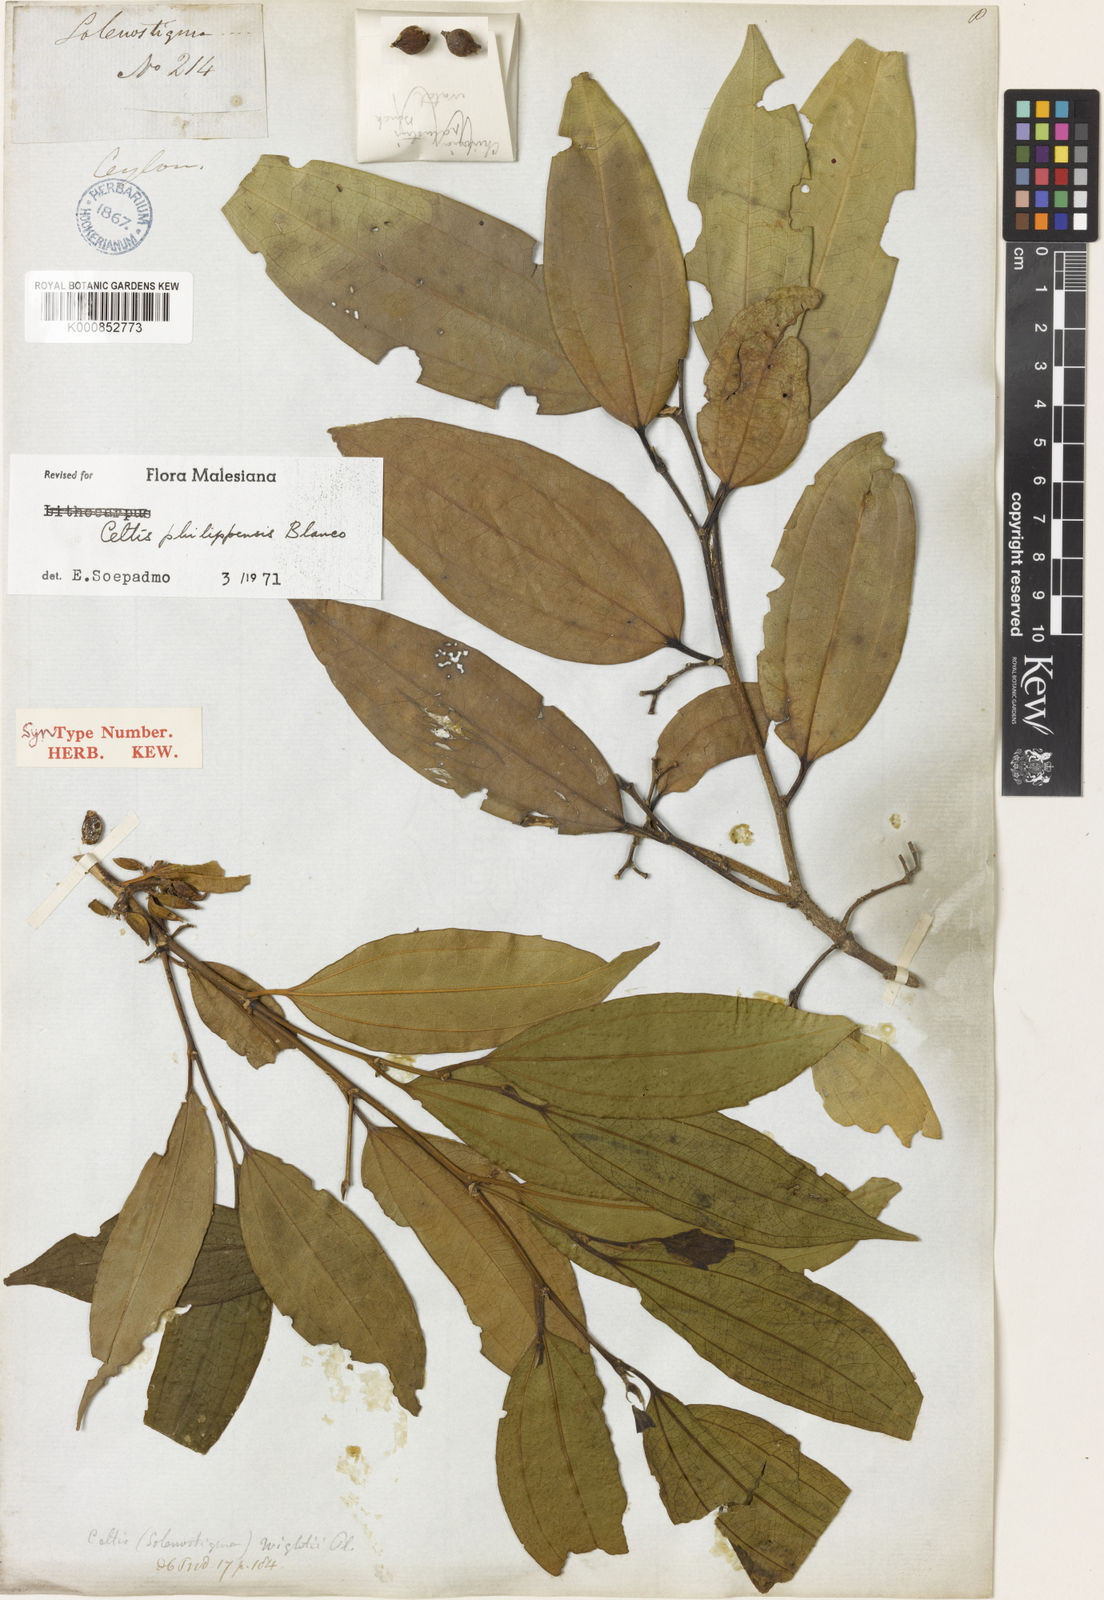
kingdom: Plantae
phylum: Tracheophyta
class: Magnoliopsida
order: Rosales
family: Cannabaceae
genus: Celtis
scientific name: Celtis philippensis
